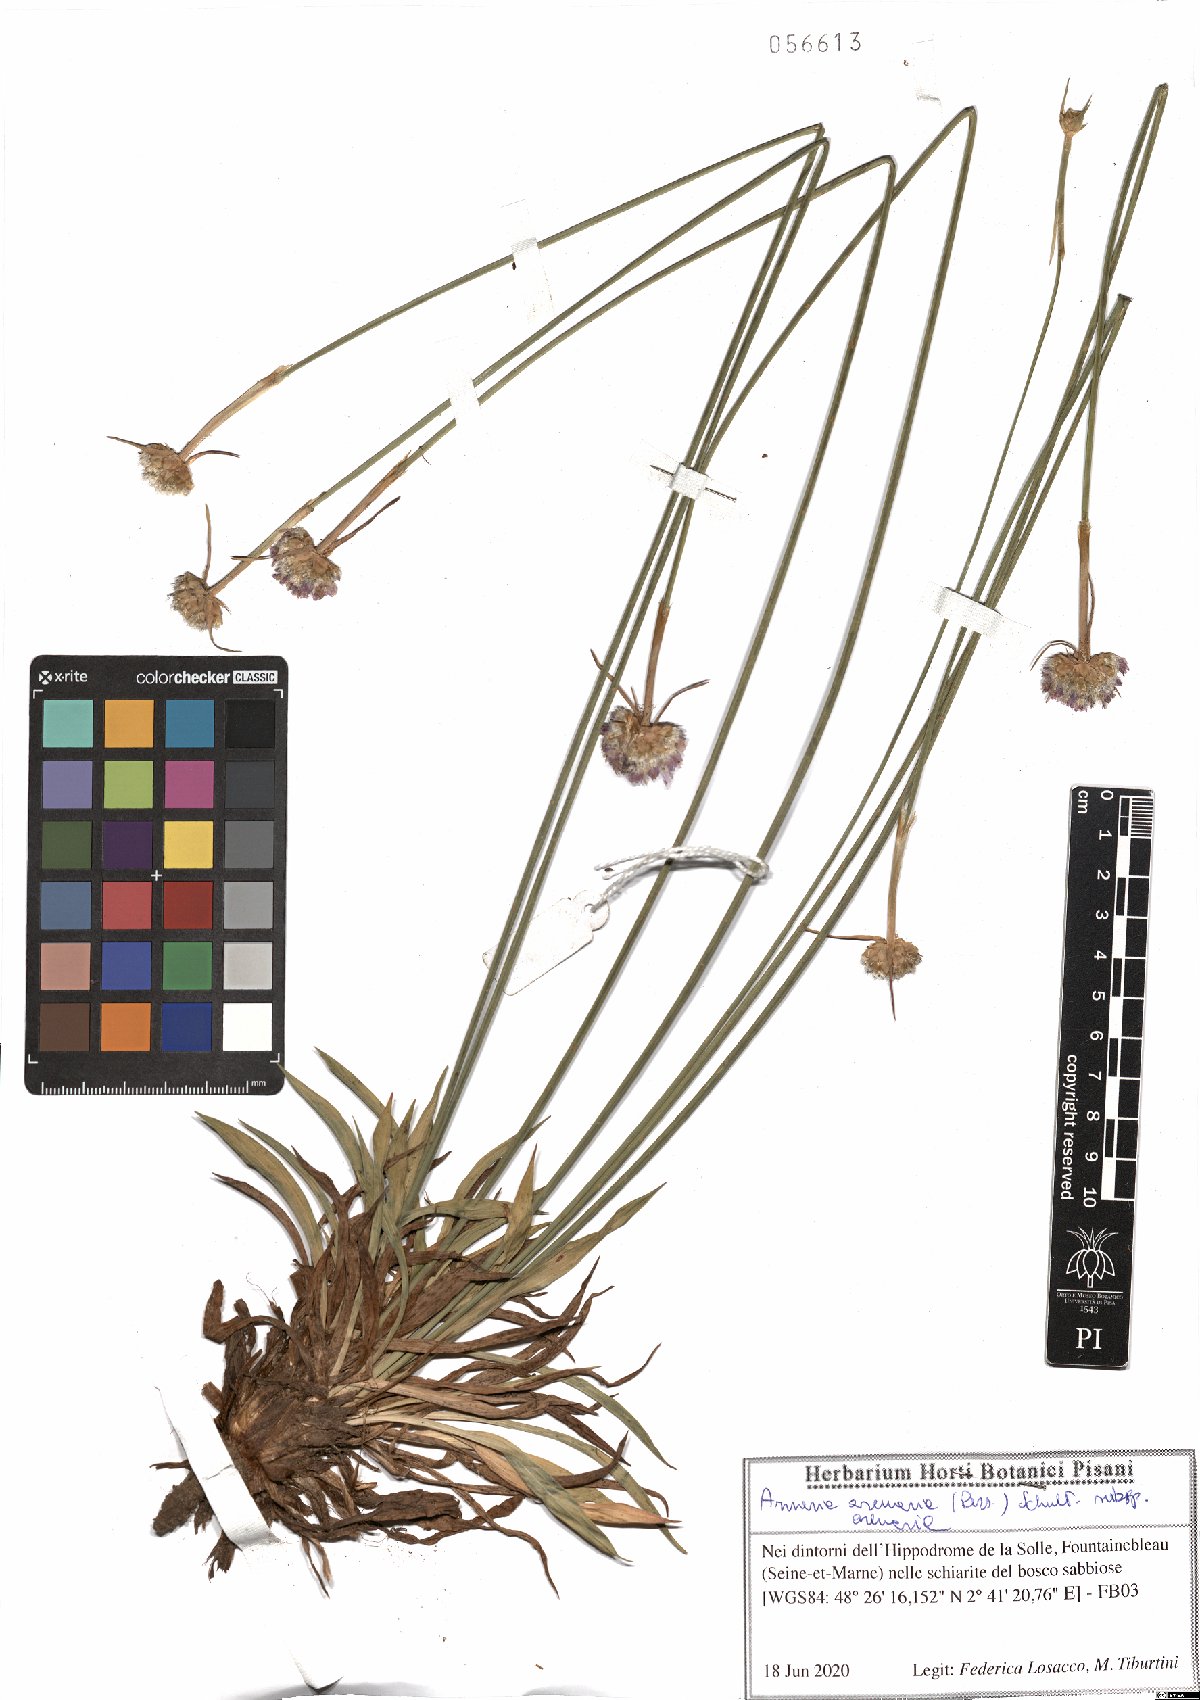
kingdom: Plantae
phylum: Tracheophyta
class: Magnoliopsida
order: Caryophyllales
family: Plumbaginaceae
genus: Armeria
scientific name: Armeria arenaria
